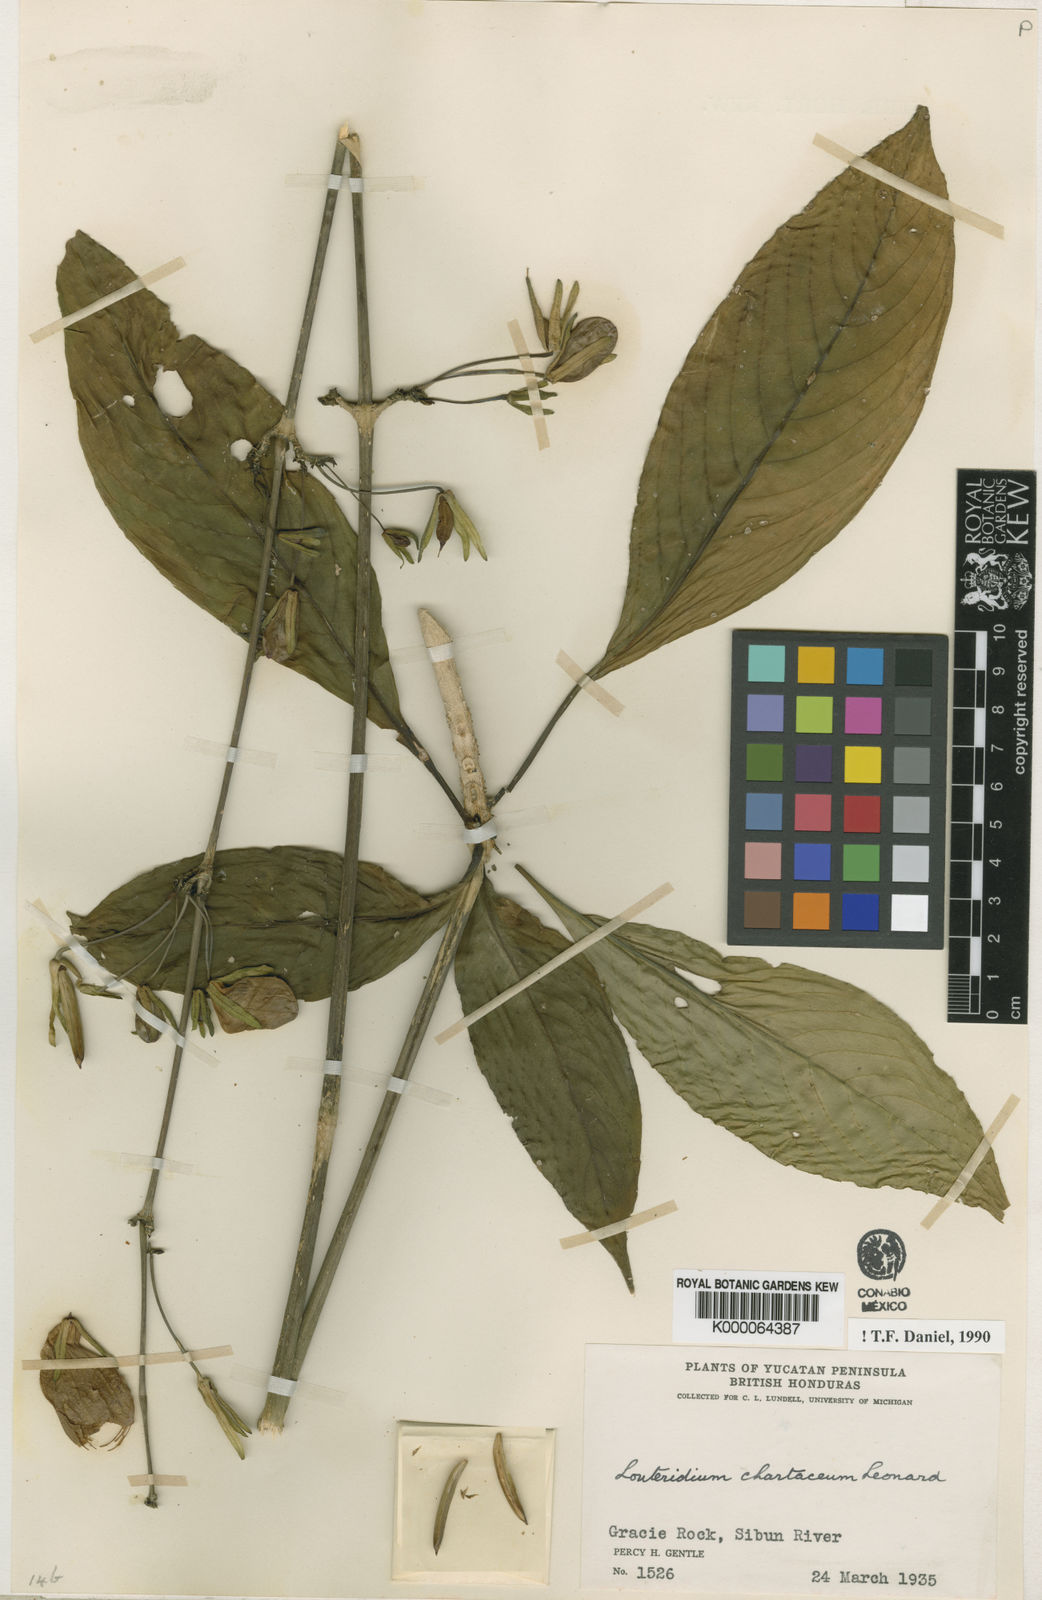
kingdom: Plantae
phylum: Tracheophyta
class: Magnoliopsida
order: Lamiales
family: Acanthaceae
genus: Louteridium
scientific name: Louteridium chartaceum
